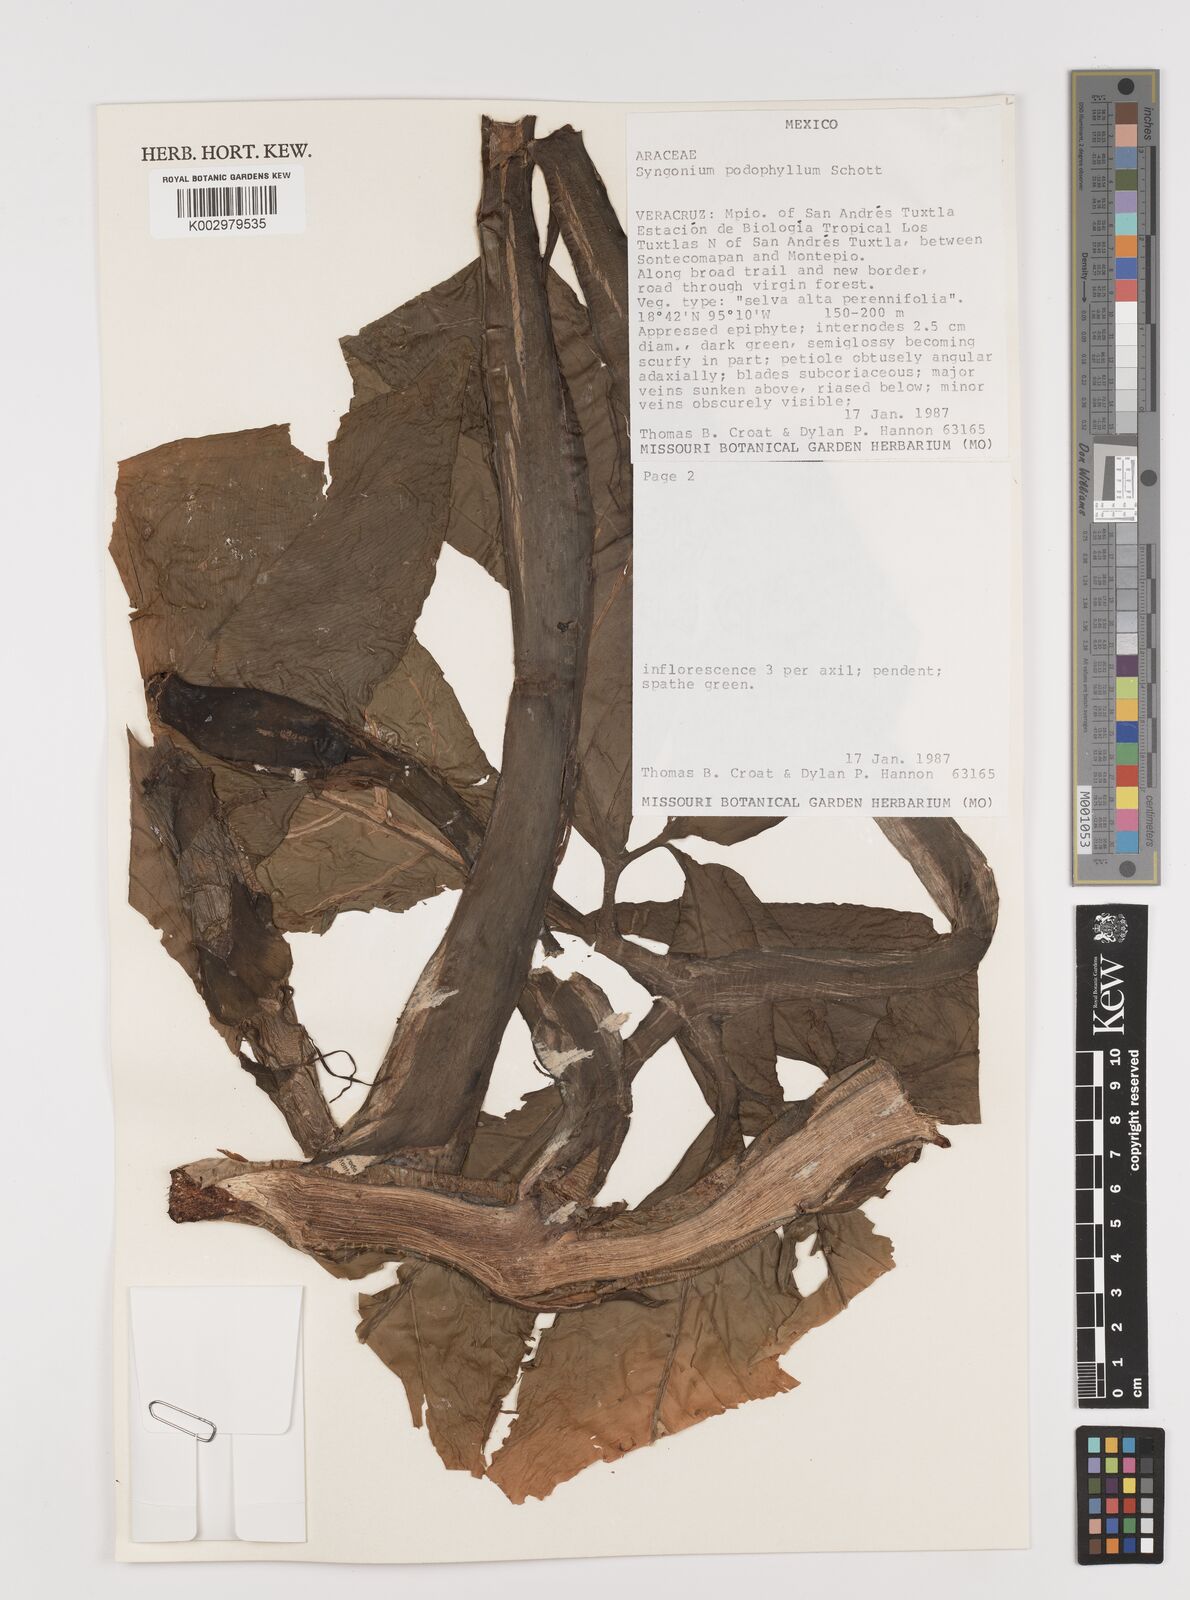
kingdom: Plantae
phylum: Tracheophyta
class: Liliopsida
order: Alismatales
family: Araceae
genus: Syngonium
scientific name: Syngonium podophyllum
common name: American evergreen
